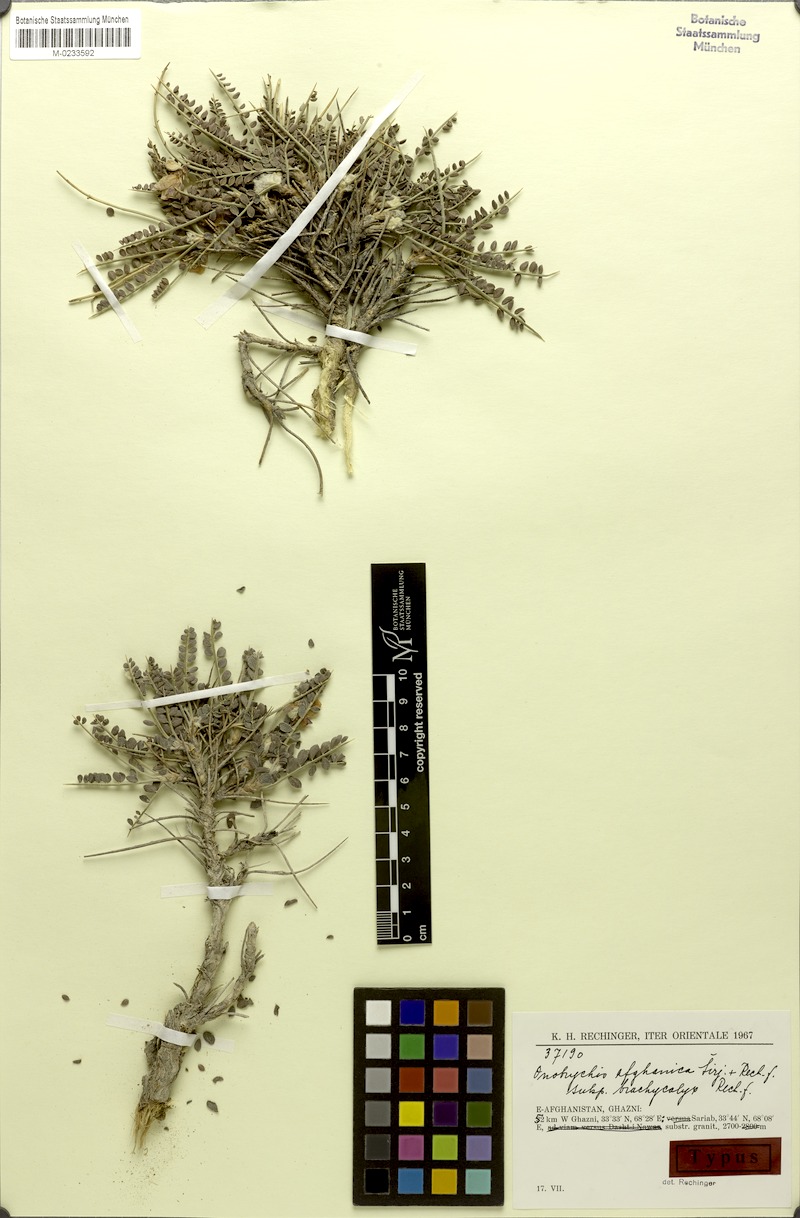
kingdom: Plantae
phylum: Tracheophyta
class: Magnoliopsida
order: Fabales
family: Fabaceae
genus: Onobrychis
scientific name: Onobrychis afghanica
